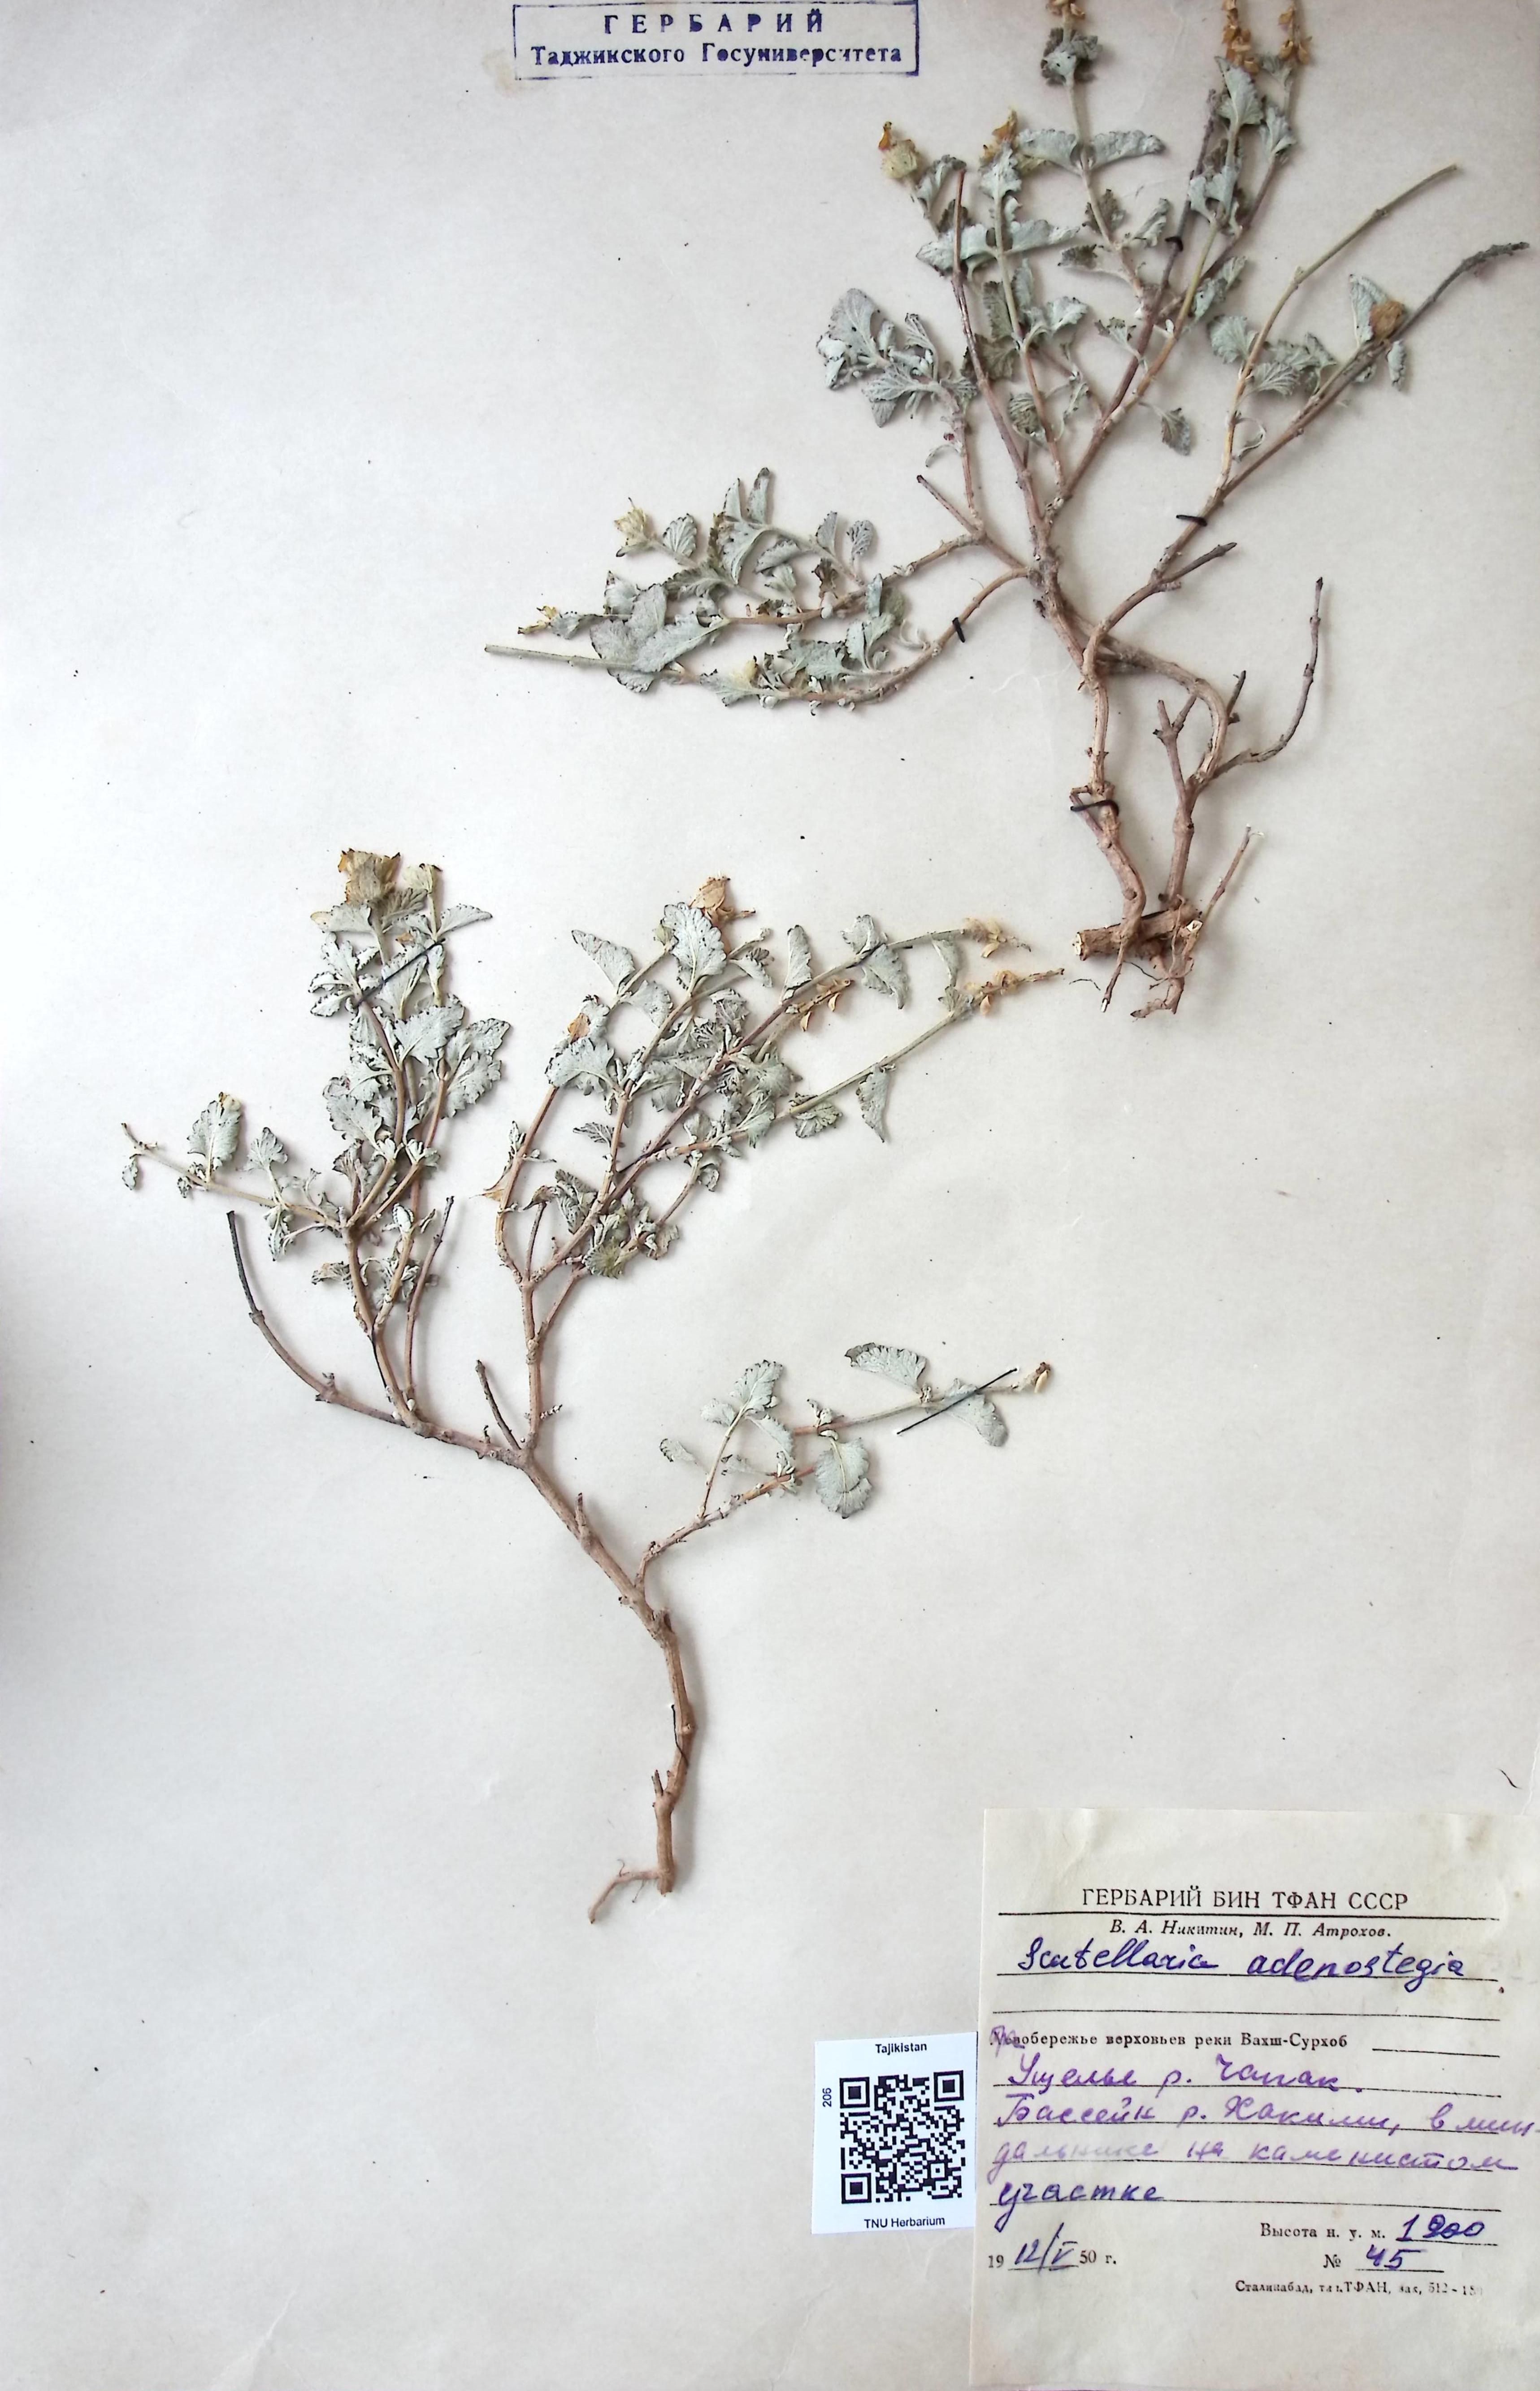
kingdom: Plantae
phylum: Tracheophyta
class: Magnoliopsida
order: Lamiales
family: Lamiaceae
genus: Scutellaria
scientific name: Scutellaria adenostegia
